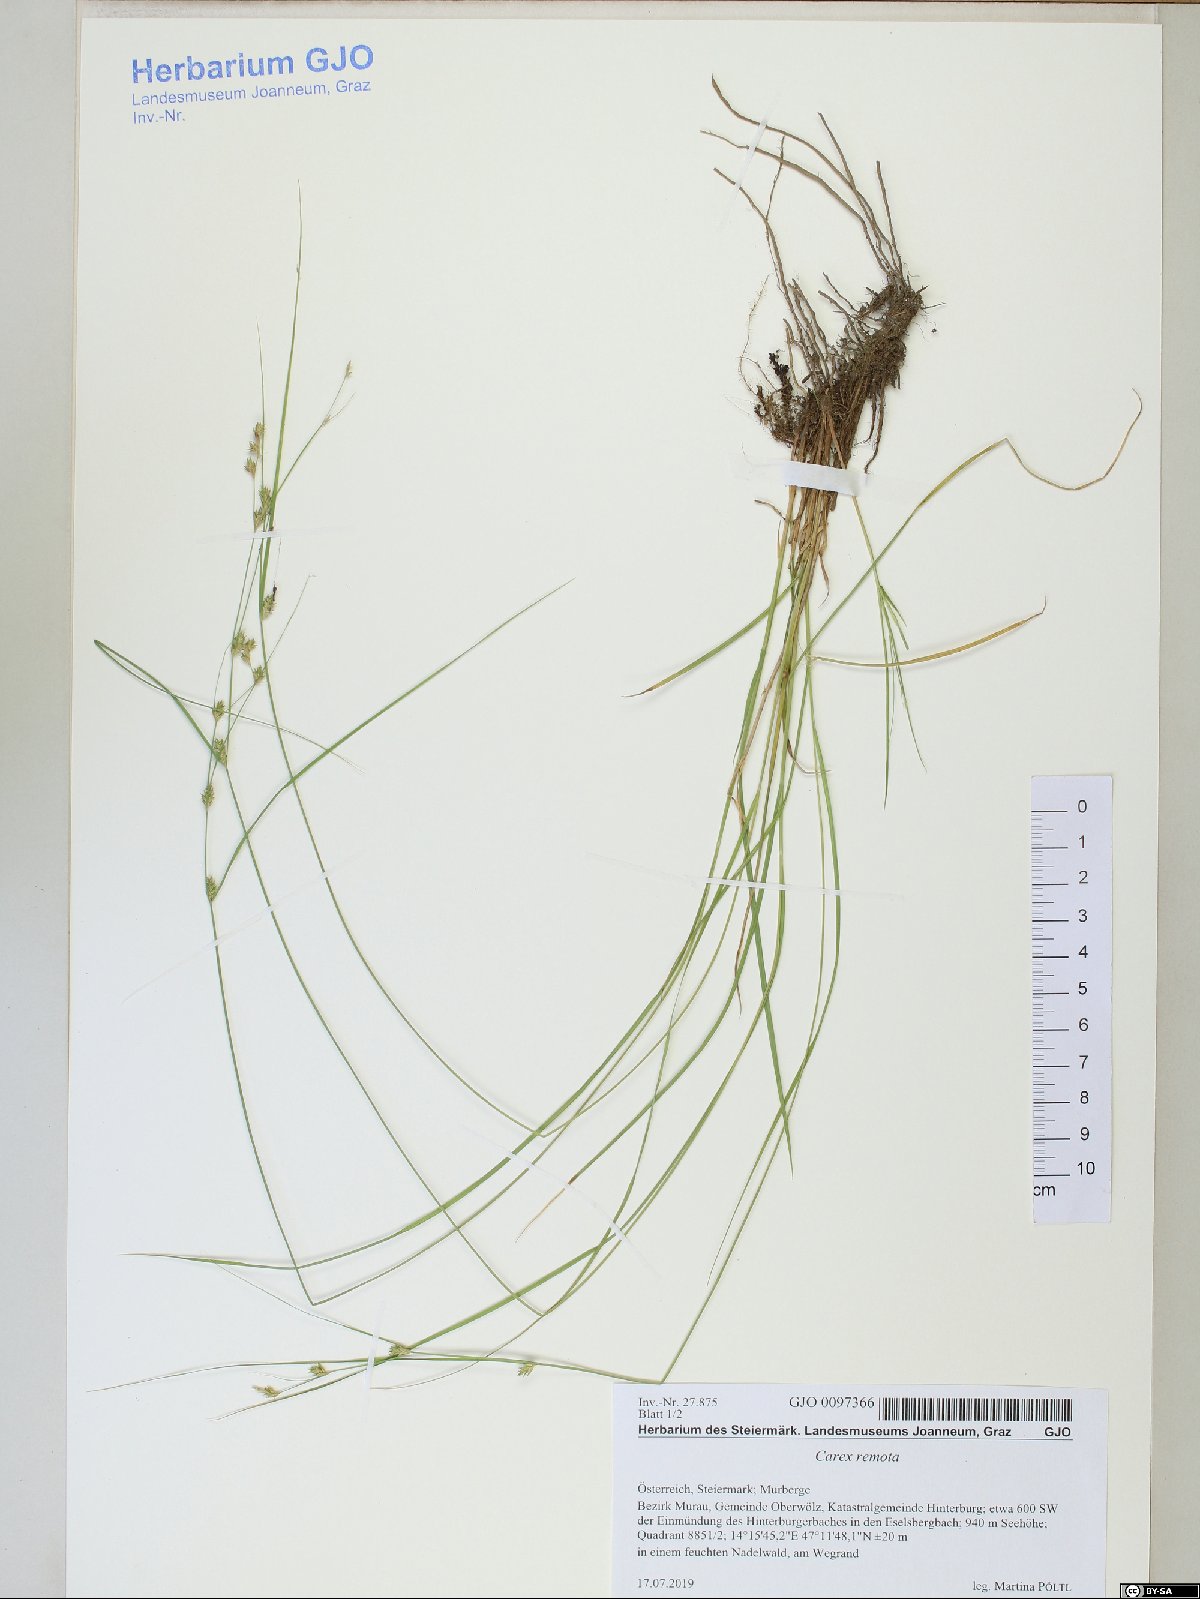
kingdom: Plantae
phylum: Tracheophyta
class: Liliopsida
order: Poales
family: Cyperaceae
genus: Carex
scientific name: Carex remota
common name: Remote sedge
